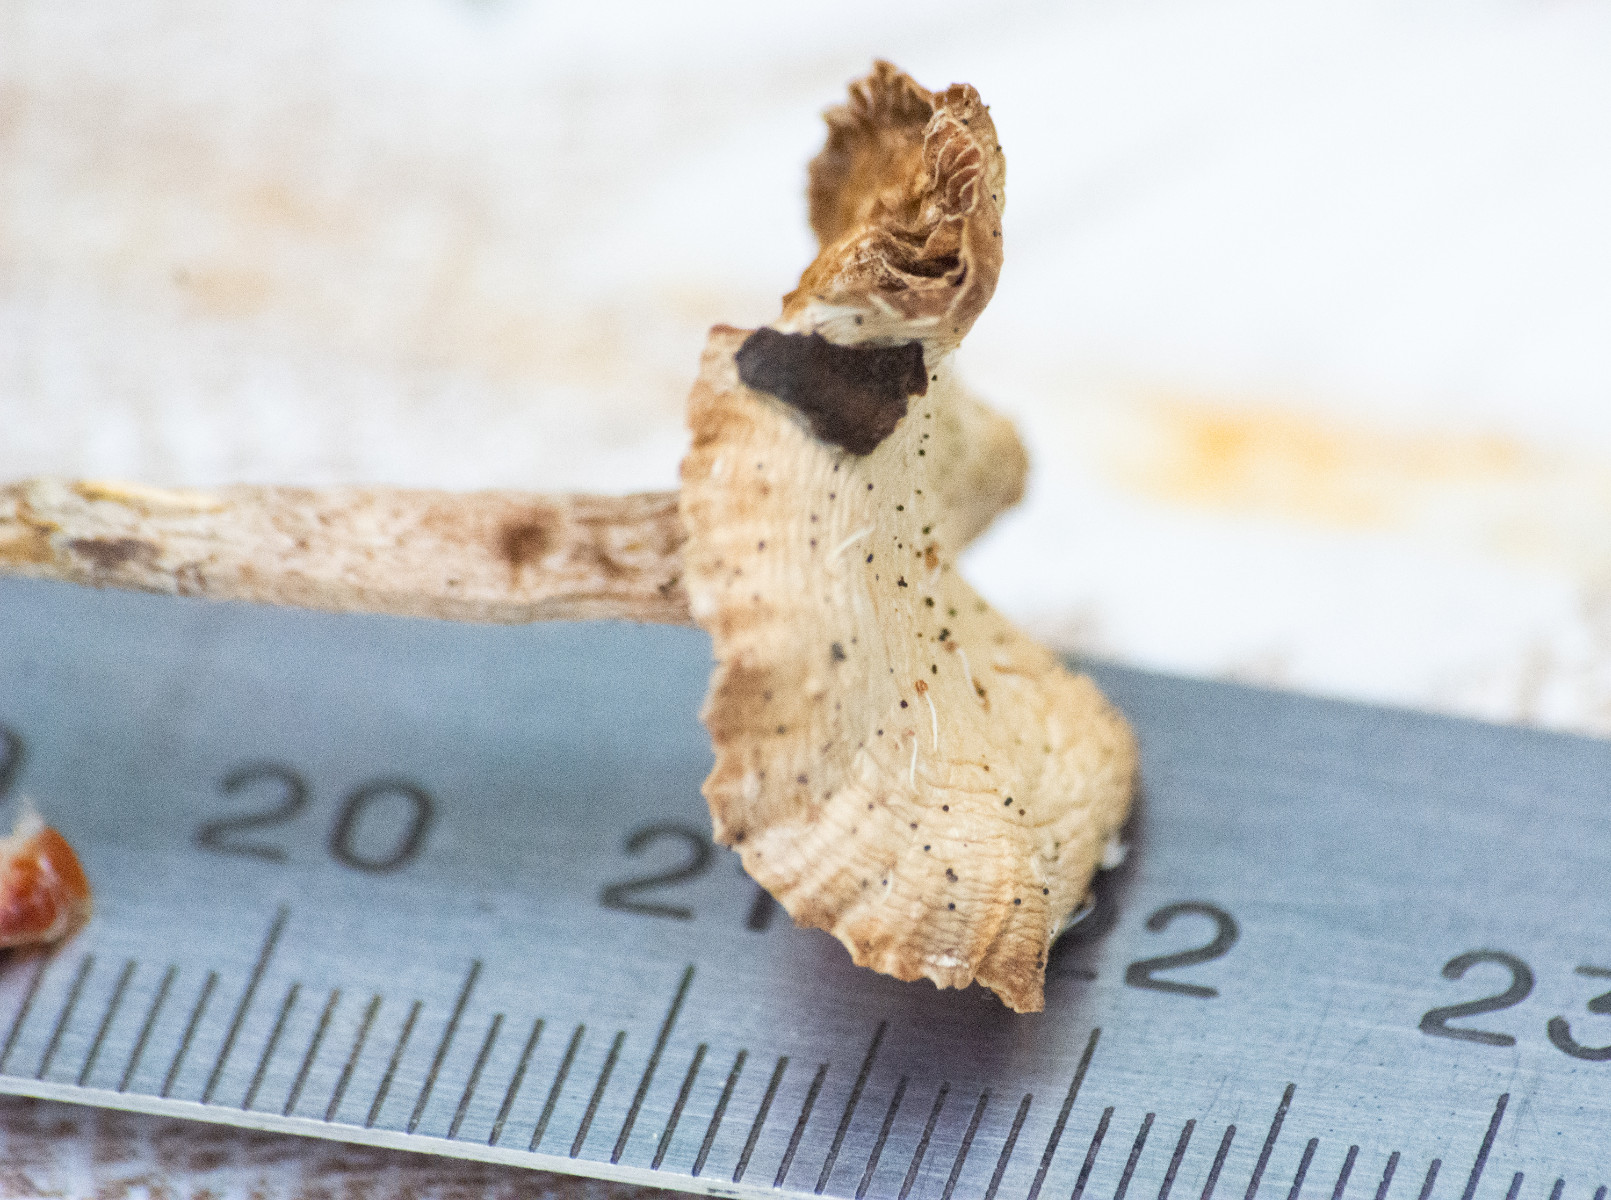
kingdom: Fungi
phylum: Basidiomycota
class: Agaricomycetes
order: Agaricales
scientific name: Agaricales
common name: champignonordenen
